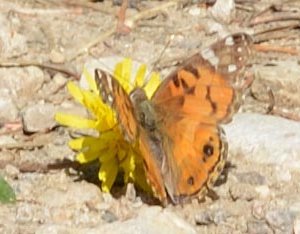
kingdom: Animalia
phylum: Arthropoda
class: Insecta
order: Lepidoptera
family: Nymphalidae
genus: Vanessa
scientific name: Vanessa virginiensis
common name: American Lady
